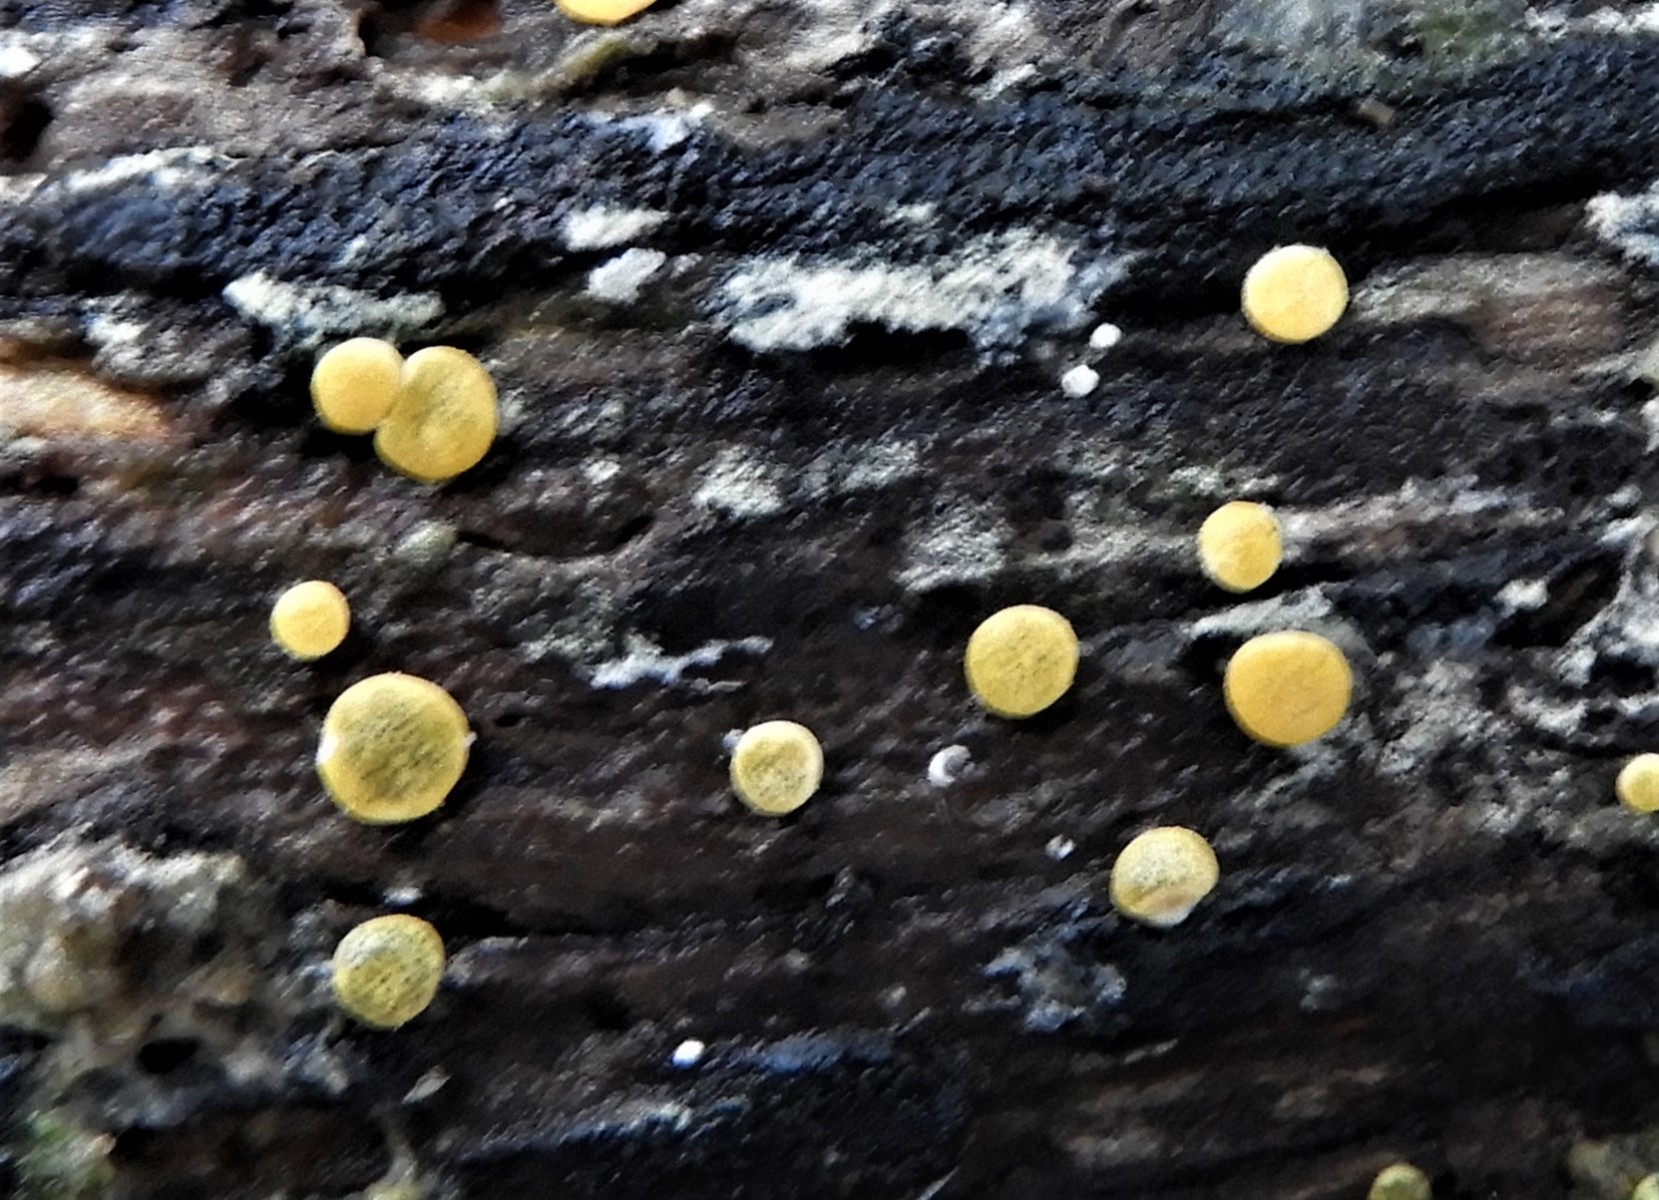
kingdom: Fungi
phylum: Ascomycota
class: Sordariomycetes
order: Hypocreales
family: Hypocreaceae
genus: Trichoderma
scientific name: Trichoderma aureoviride
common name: æggegul kødkerne
